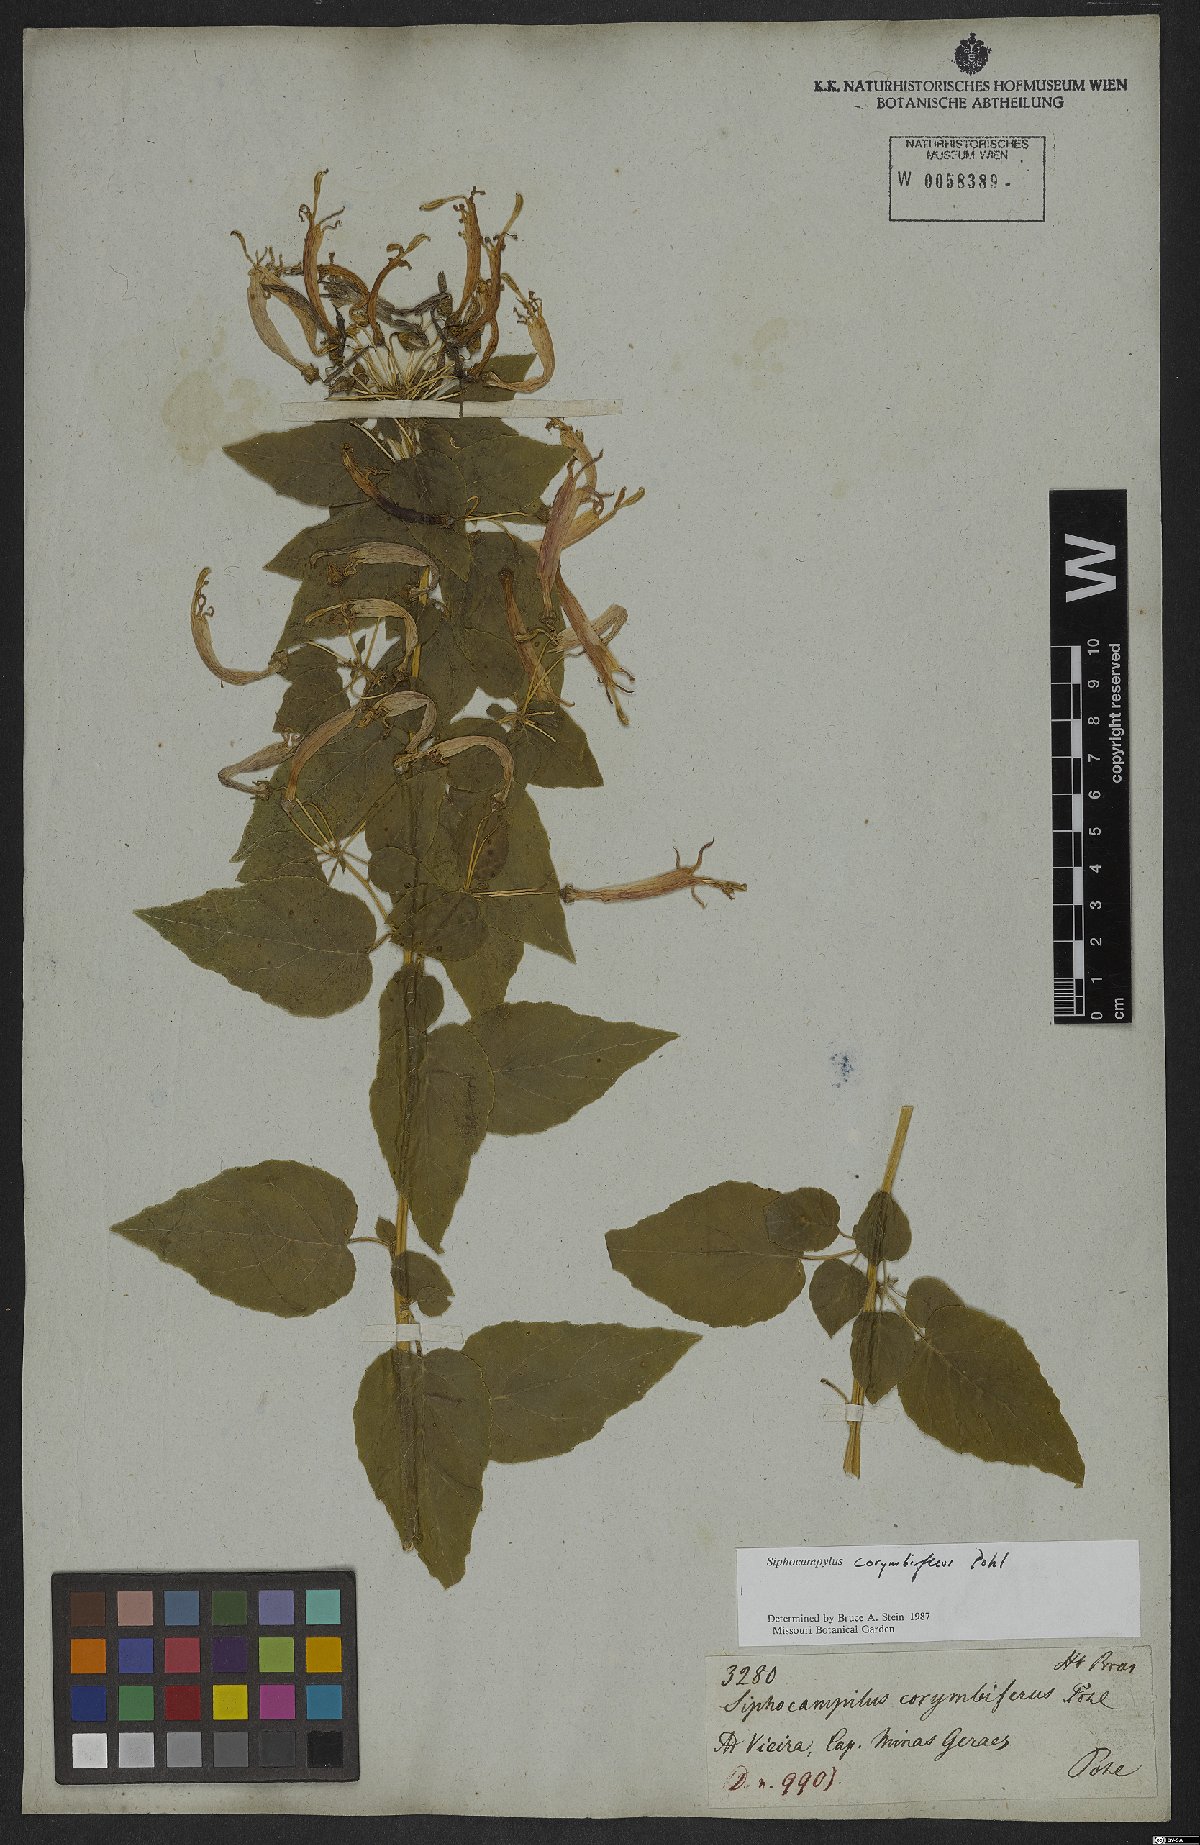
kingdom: Plantae
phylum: Tracheophyta
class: Magnoliopsida
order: Asterales
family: Campanulaceae
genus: Siphocampylus
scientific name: Siphocampylus corymbiferus
